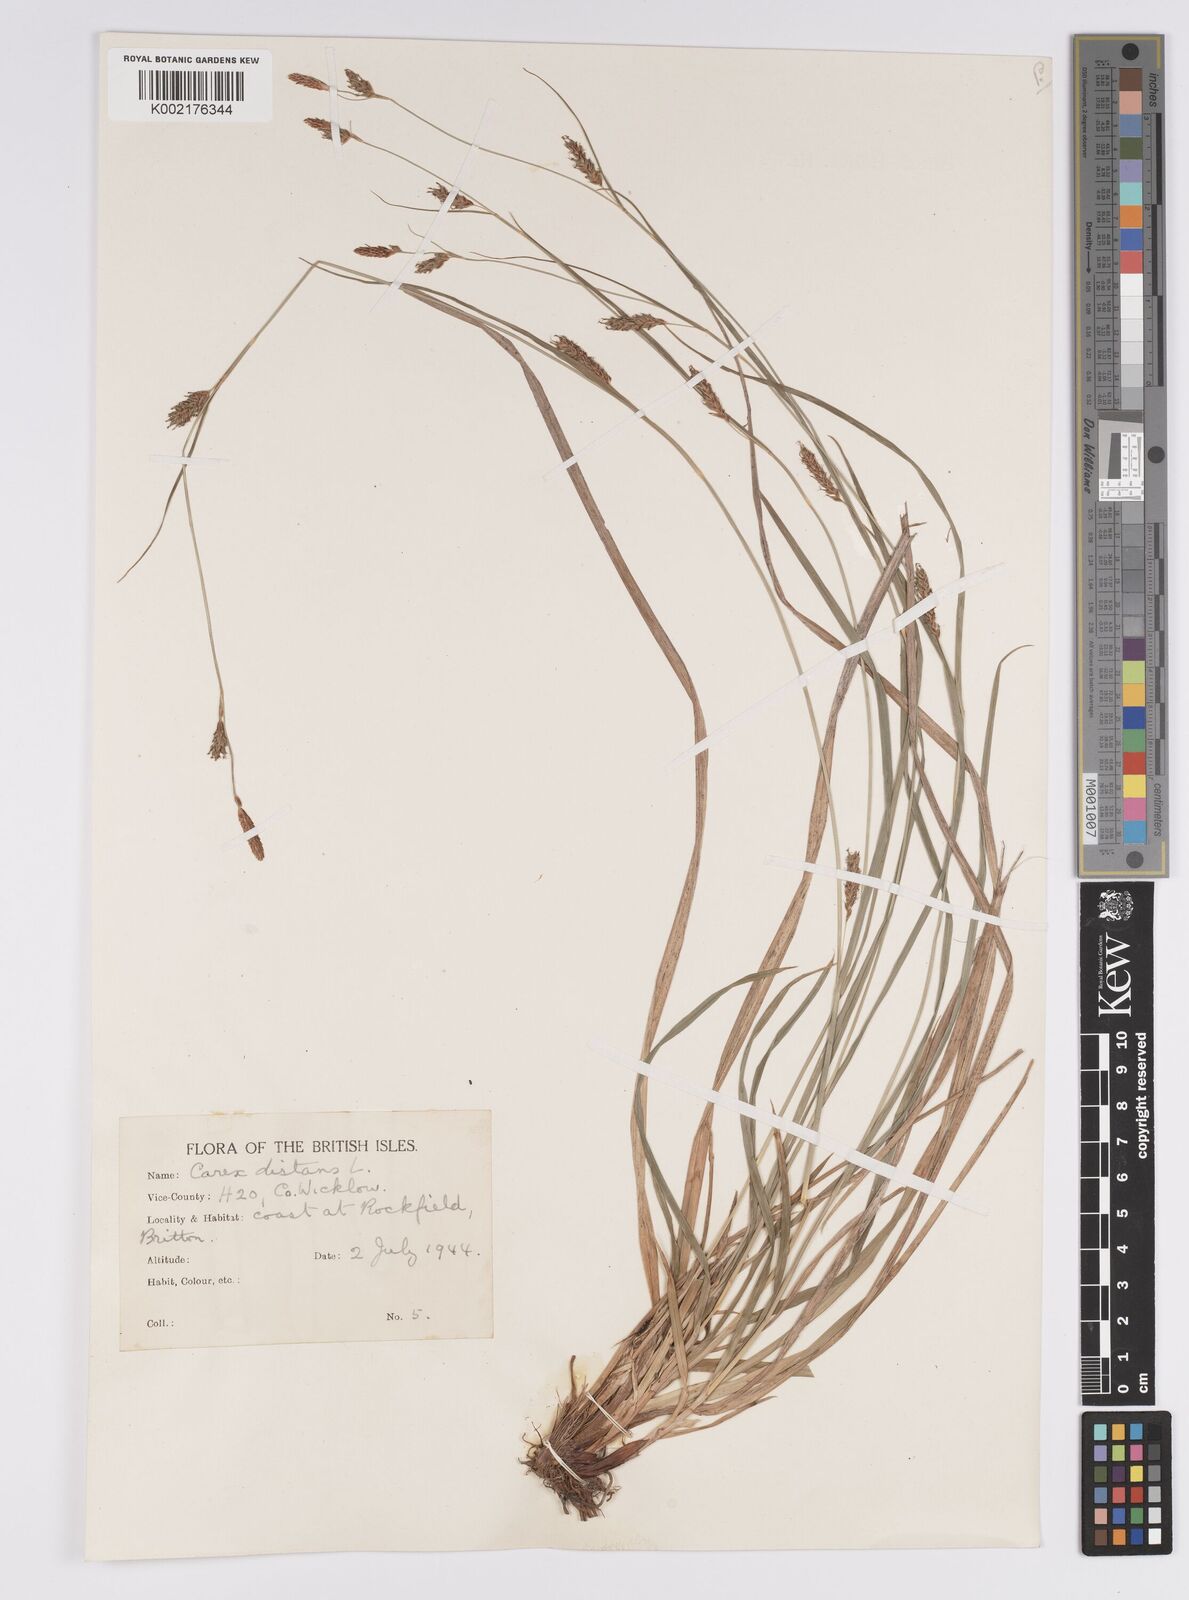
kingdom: Plantae
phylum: Tracheophyta
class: Liliopsida
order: Poales
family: Cyperaceae
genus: Carex
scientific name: Carex distans
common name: Distant sedge
